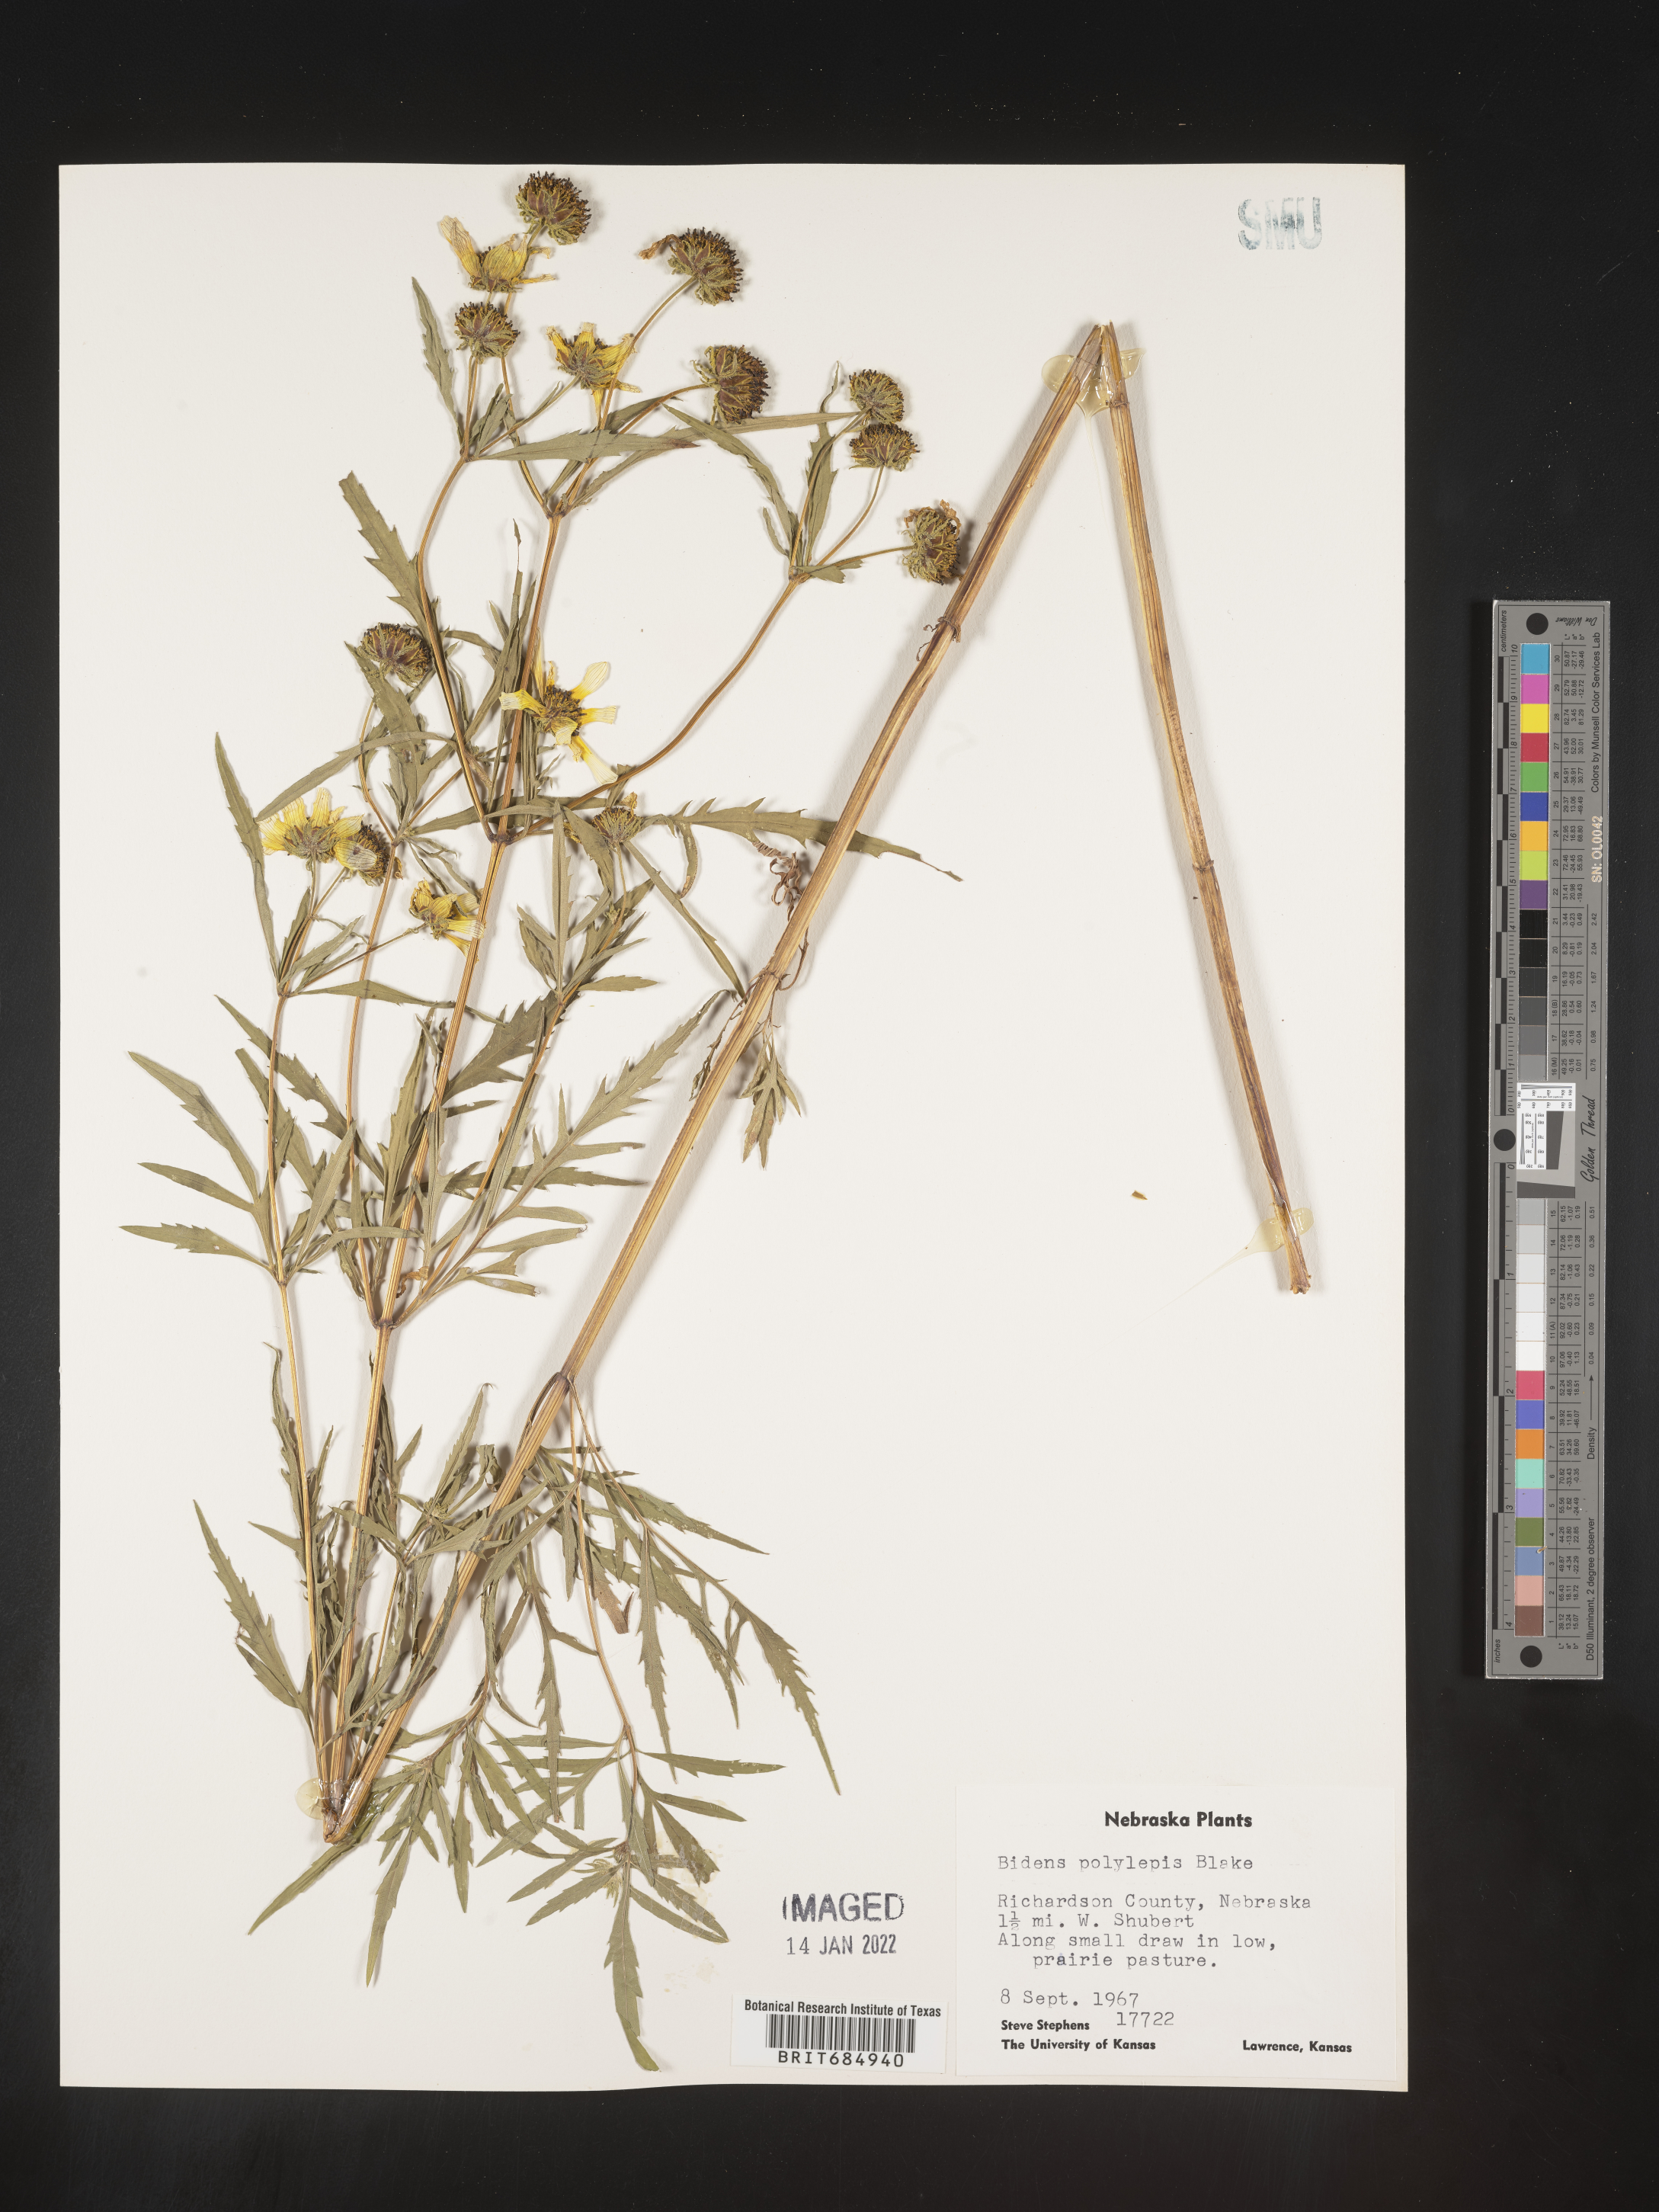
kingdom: Plantae
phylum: Tracheophyta
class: Magnoliopsida
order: Asterales
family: Asteraceae
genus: Bidens
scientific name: Bidens polylepis
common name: Awnless beggarticks
